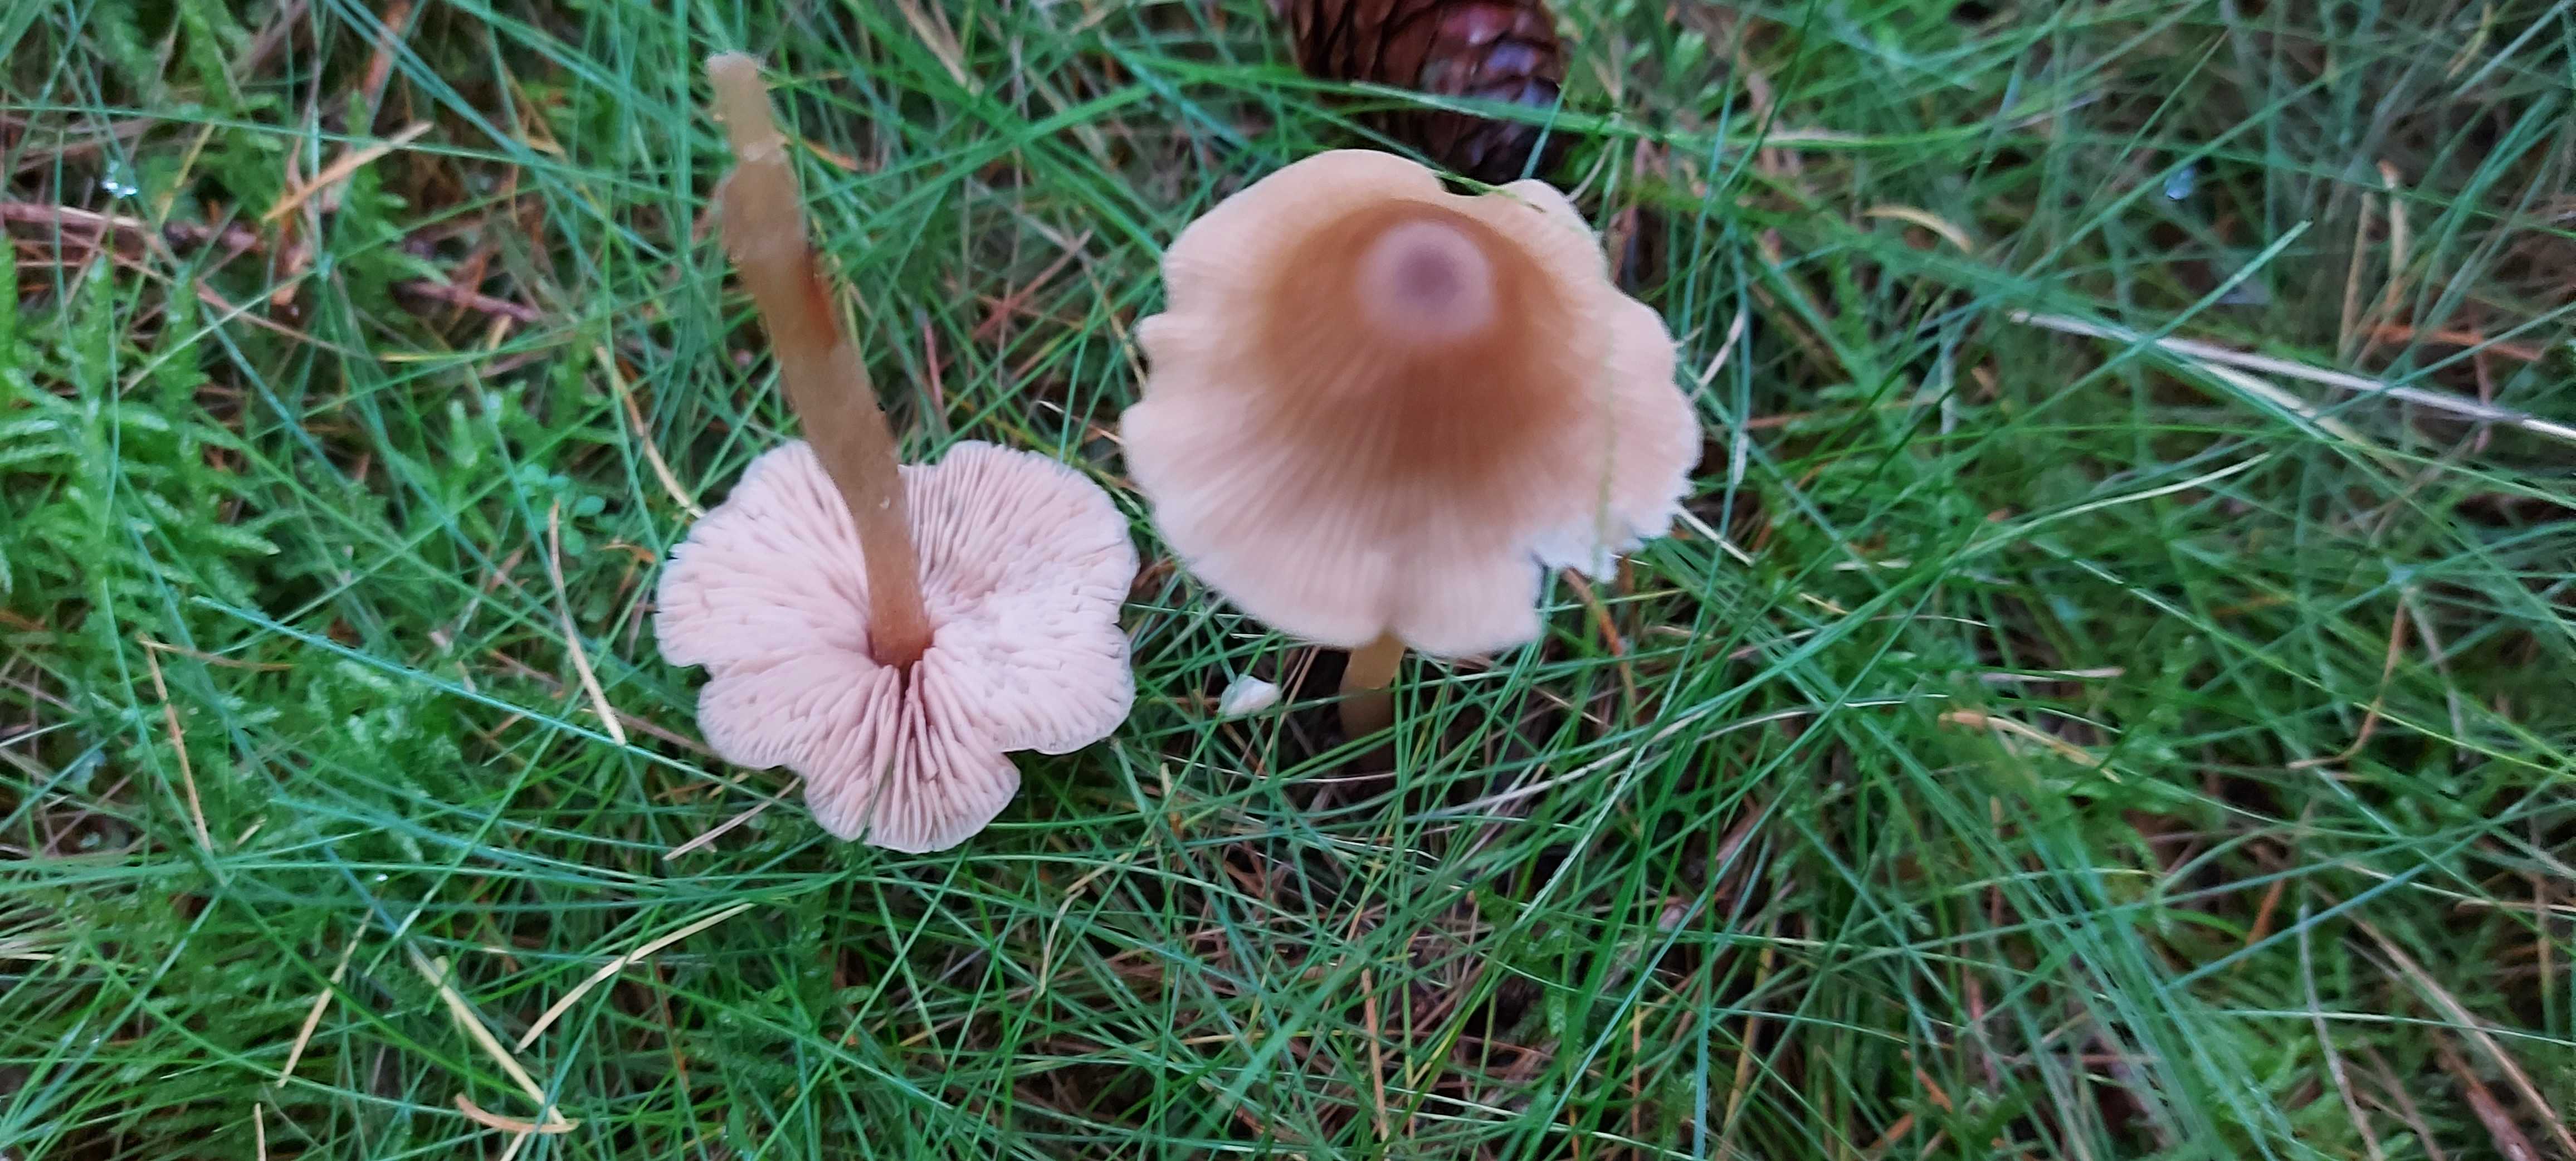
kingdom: Fungi
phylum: Basidiomycota
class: Agaricomycetes
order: Agaricales
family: Entolomataceae
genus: Entoloma
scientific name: Entoloma
